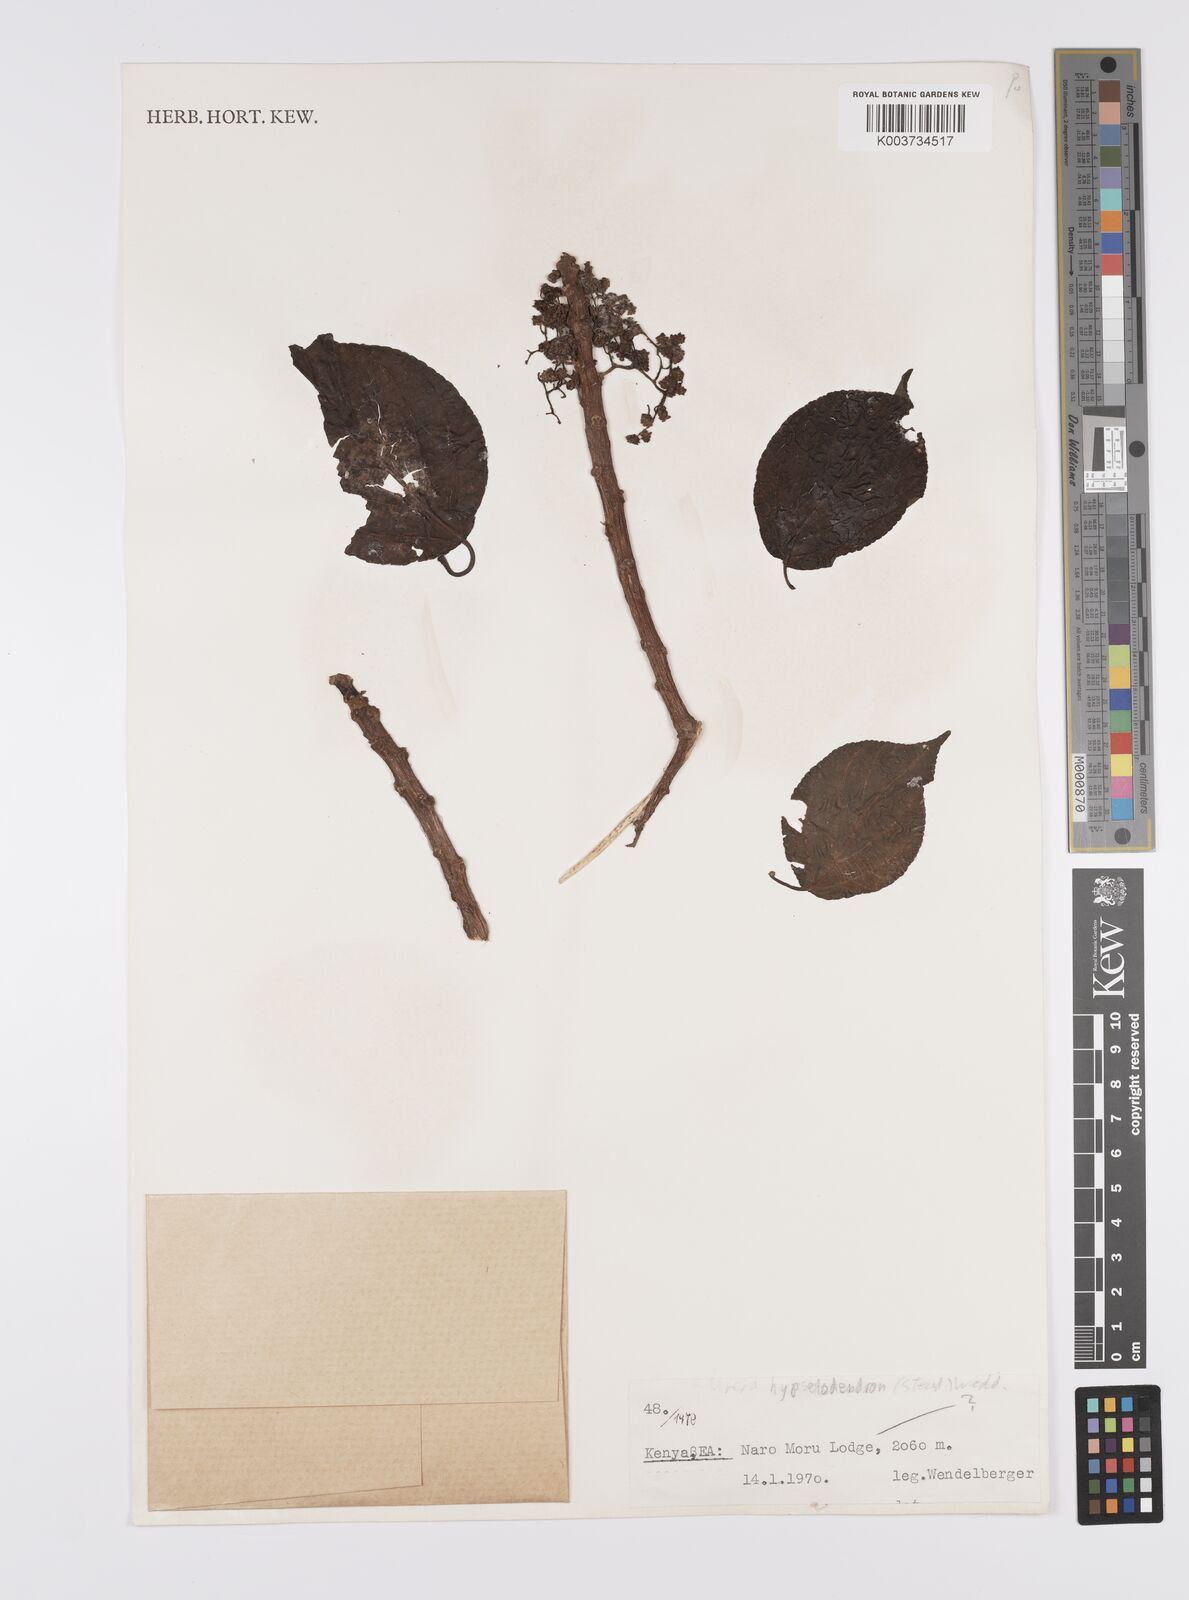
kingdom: Plantae
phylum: Tracheophyta
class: Magnoliopsida
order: Rosales
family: Urticaceae
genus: Scepocarpus
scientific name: Scepocarpus
